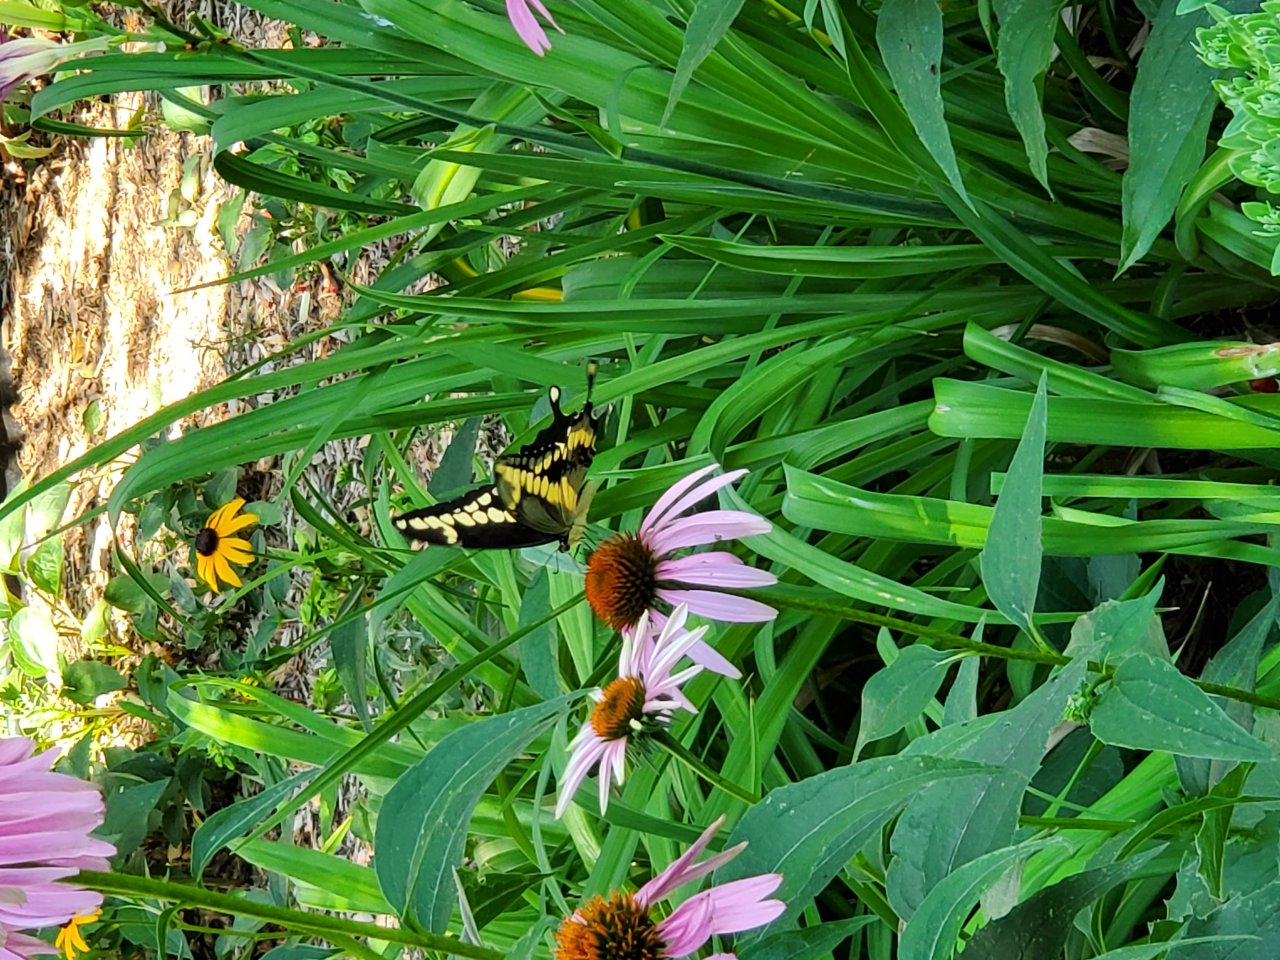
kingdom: Animalia
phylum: Arthropoda
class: Insecta
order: Lepidoptera
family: Papilionidae
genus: Papilio
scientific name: Papilio cresphontes
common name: Eastern Giant Swallowtail
